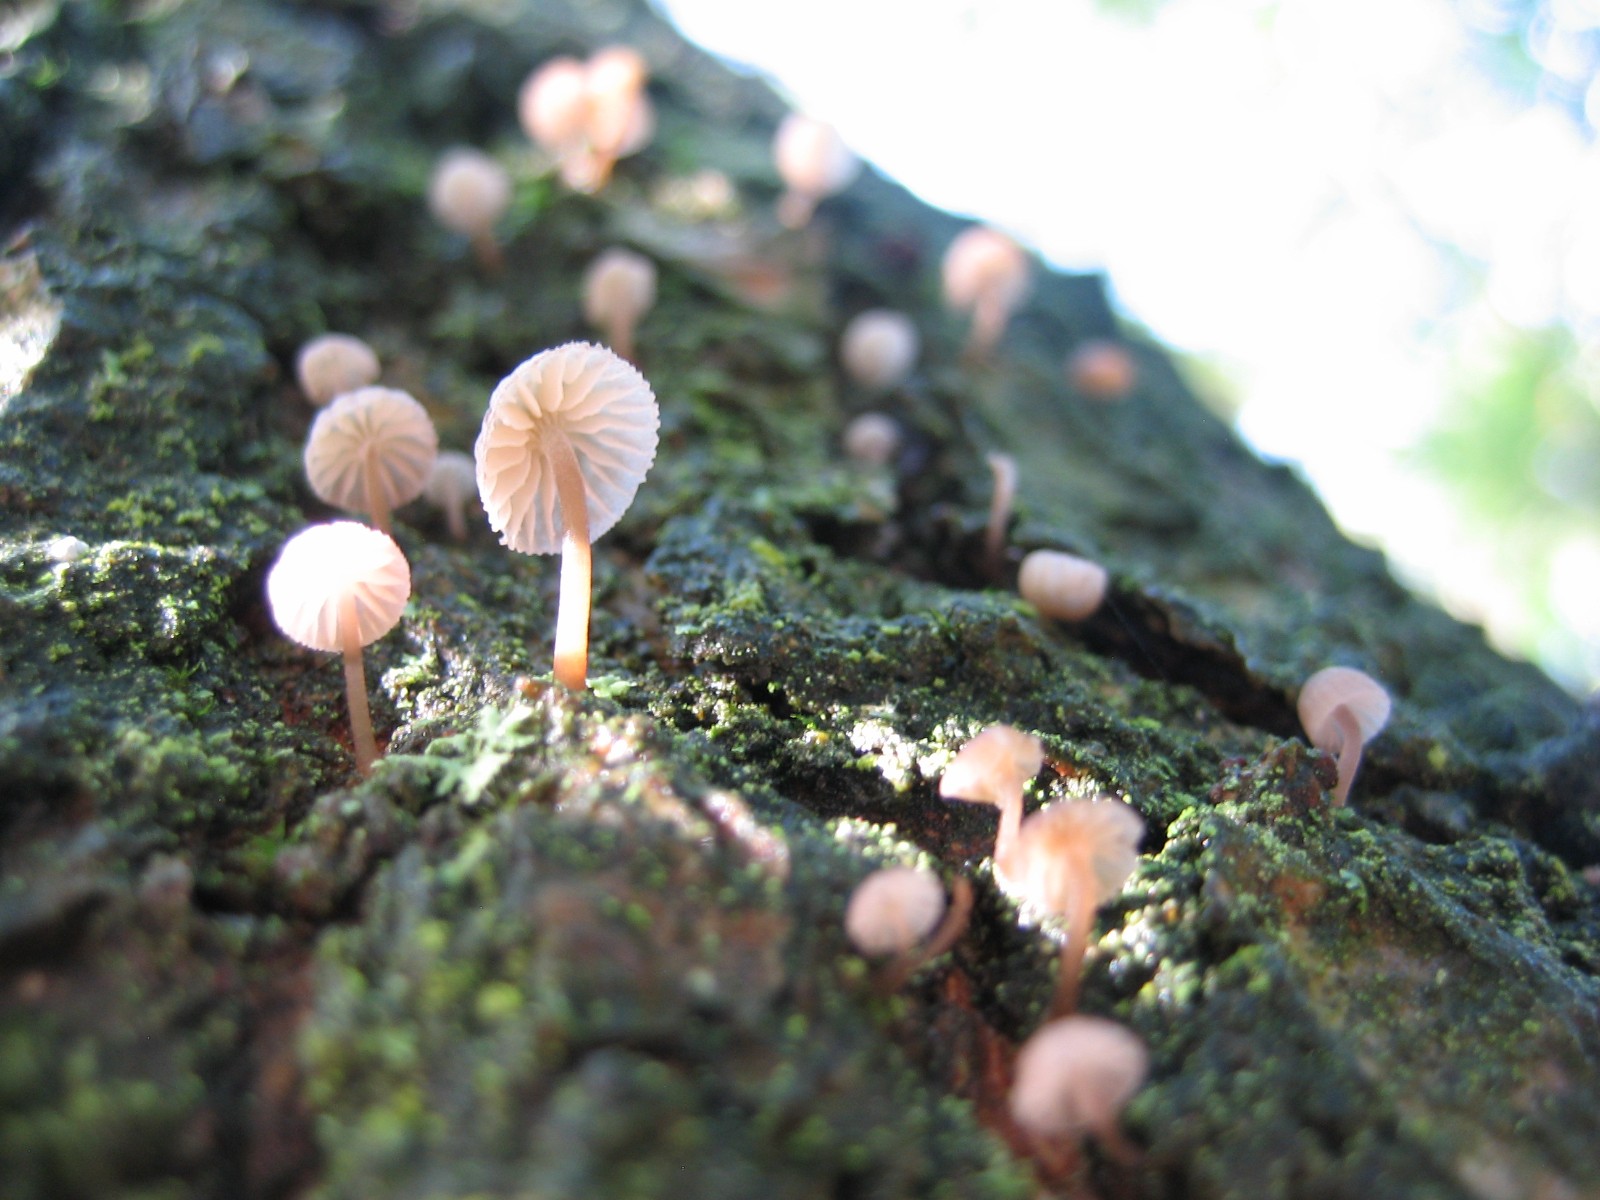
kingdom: Fungi
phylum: Basidiomycota
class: Agaricomycetes
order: Agaricales
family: Mycenaceae
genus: Mycena
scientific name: Mycena meliigena
